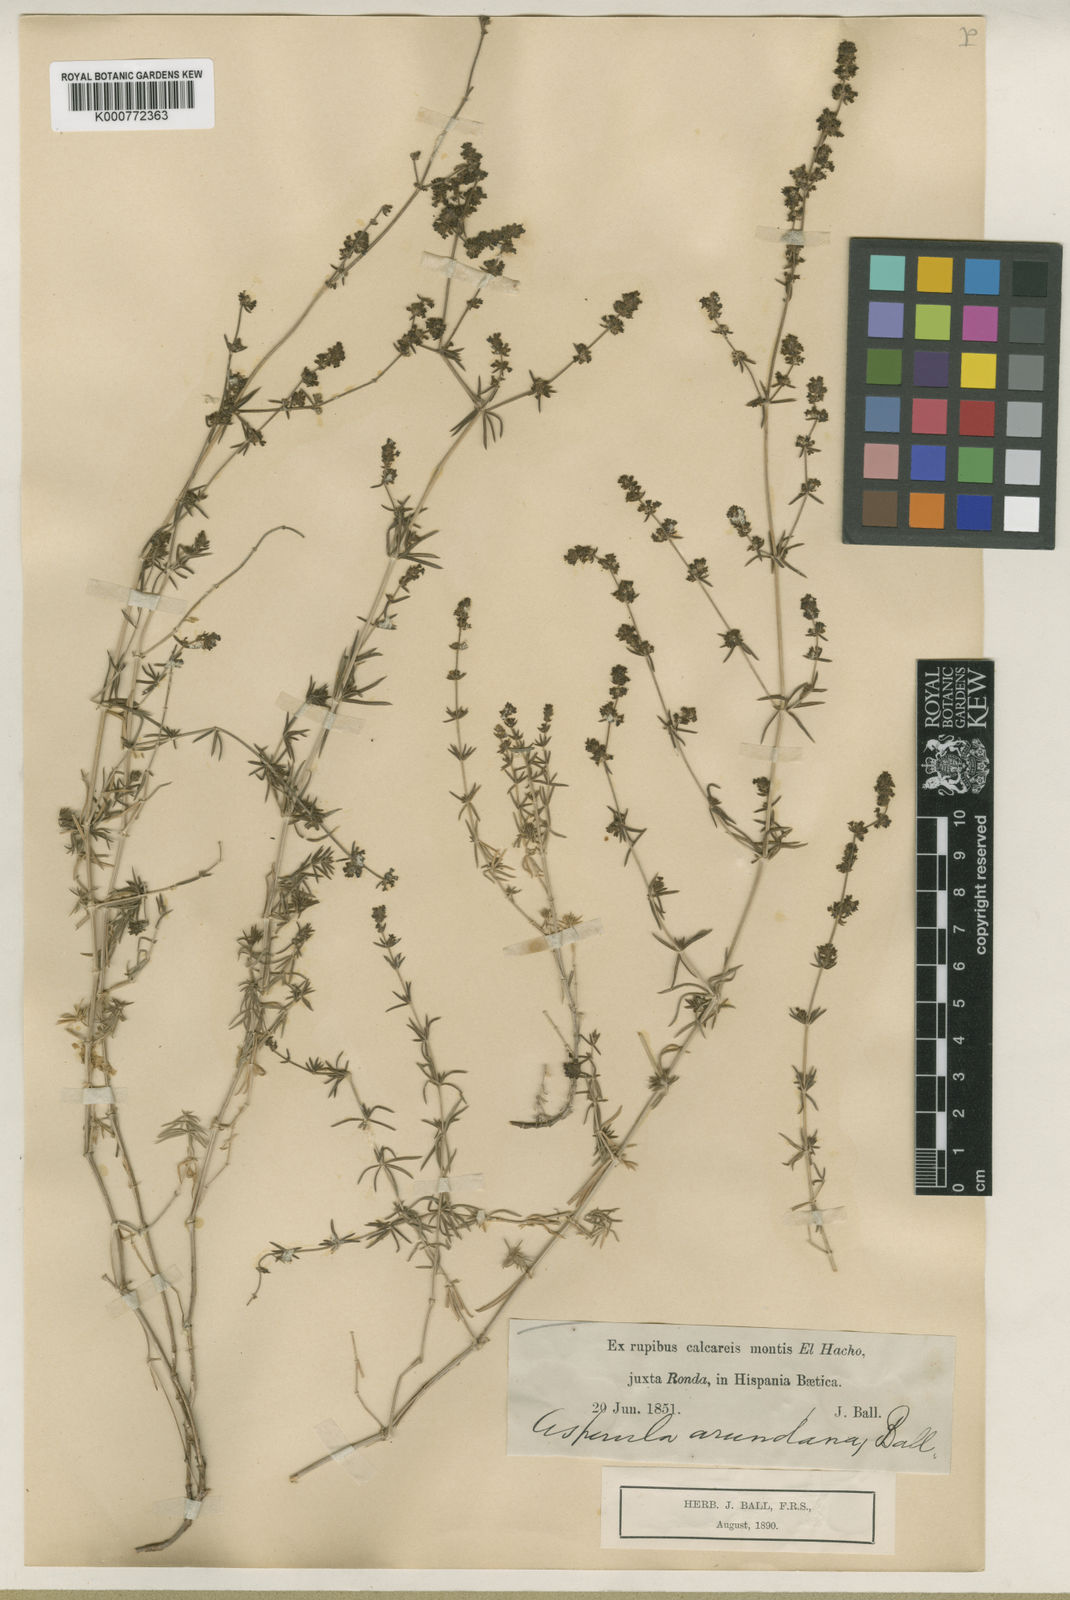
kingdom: Plantae
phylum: Tracheophyta
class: Magnoliopsida
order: Gentianales
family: Rubiaceae
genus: Galium
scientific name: Galium baeticum
